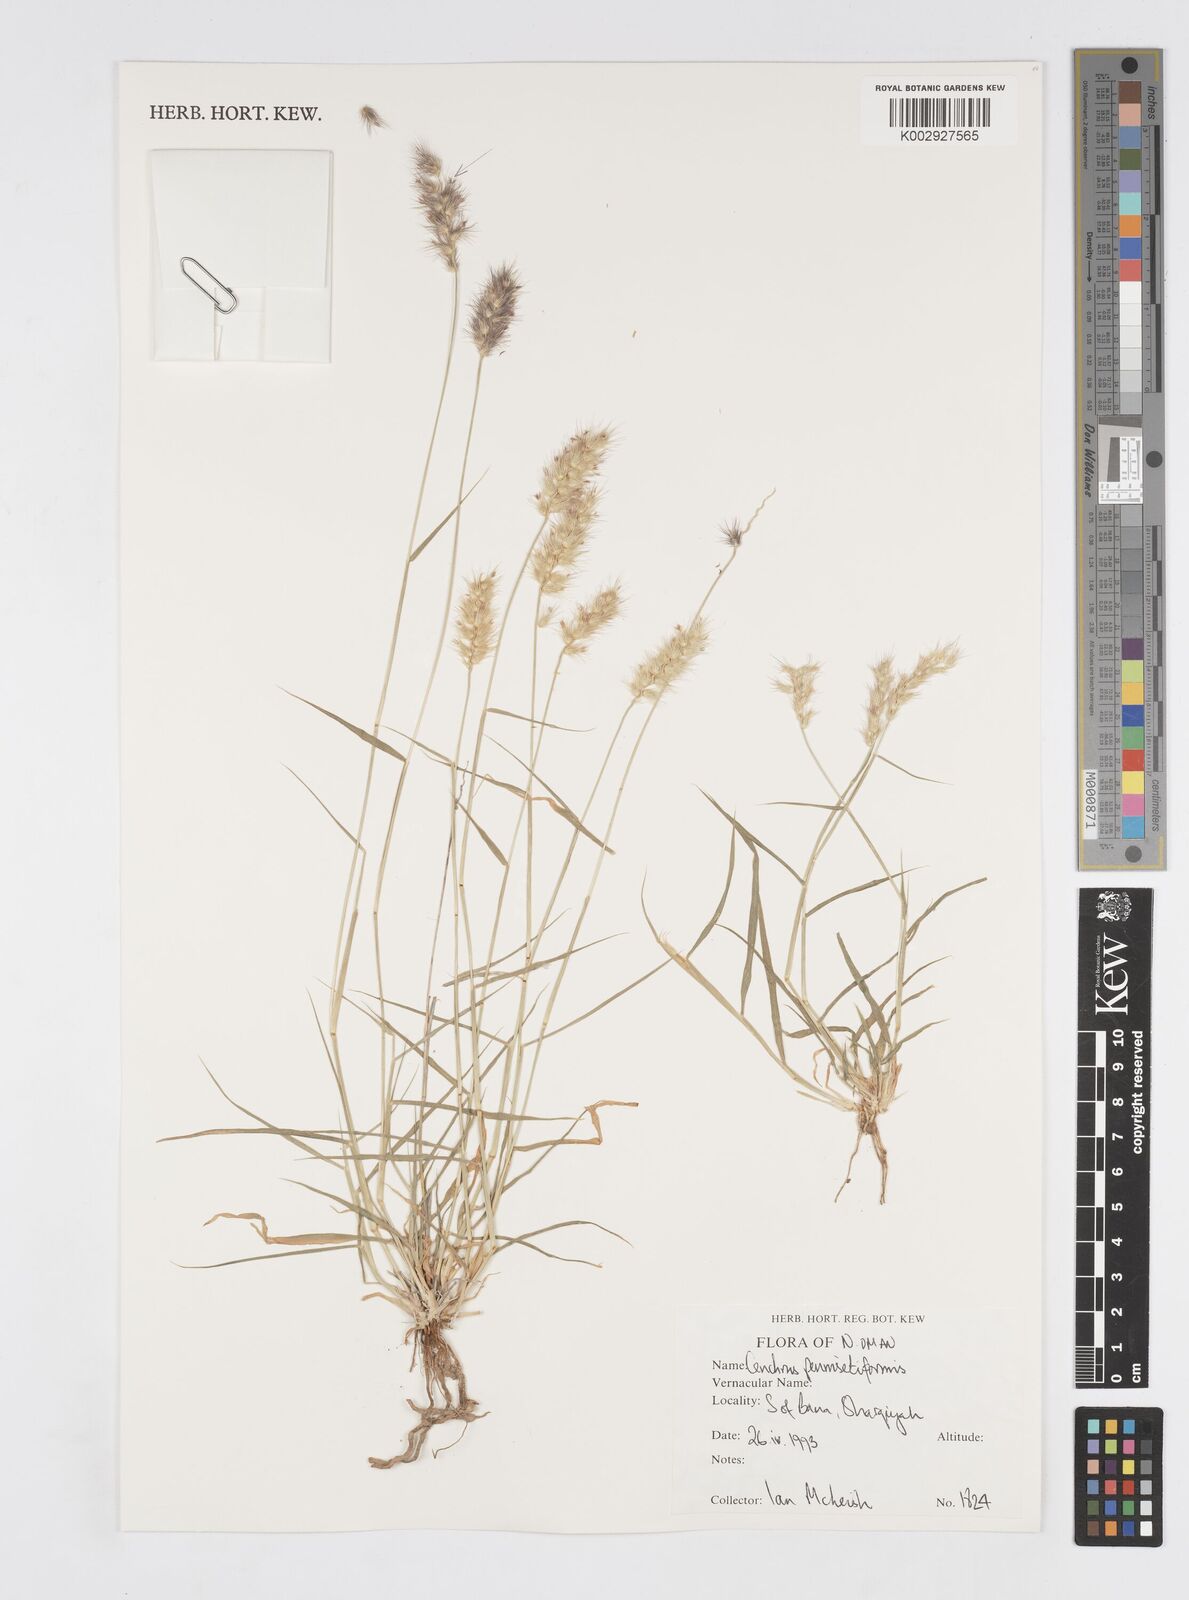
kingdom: Plantae
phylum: Tracheophyta
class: Liliopsida
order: Poales
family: Poaceae
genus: Cenchrus
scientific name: Cenchrus pennisetiformis
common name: Cloncurry
